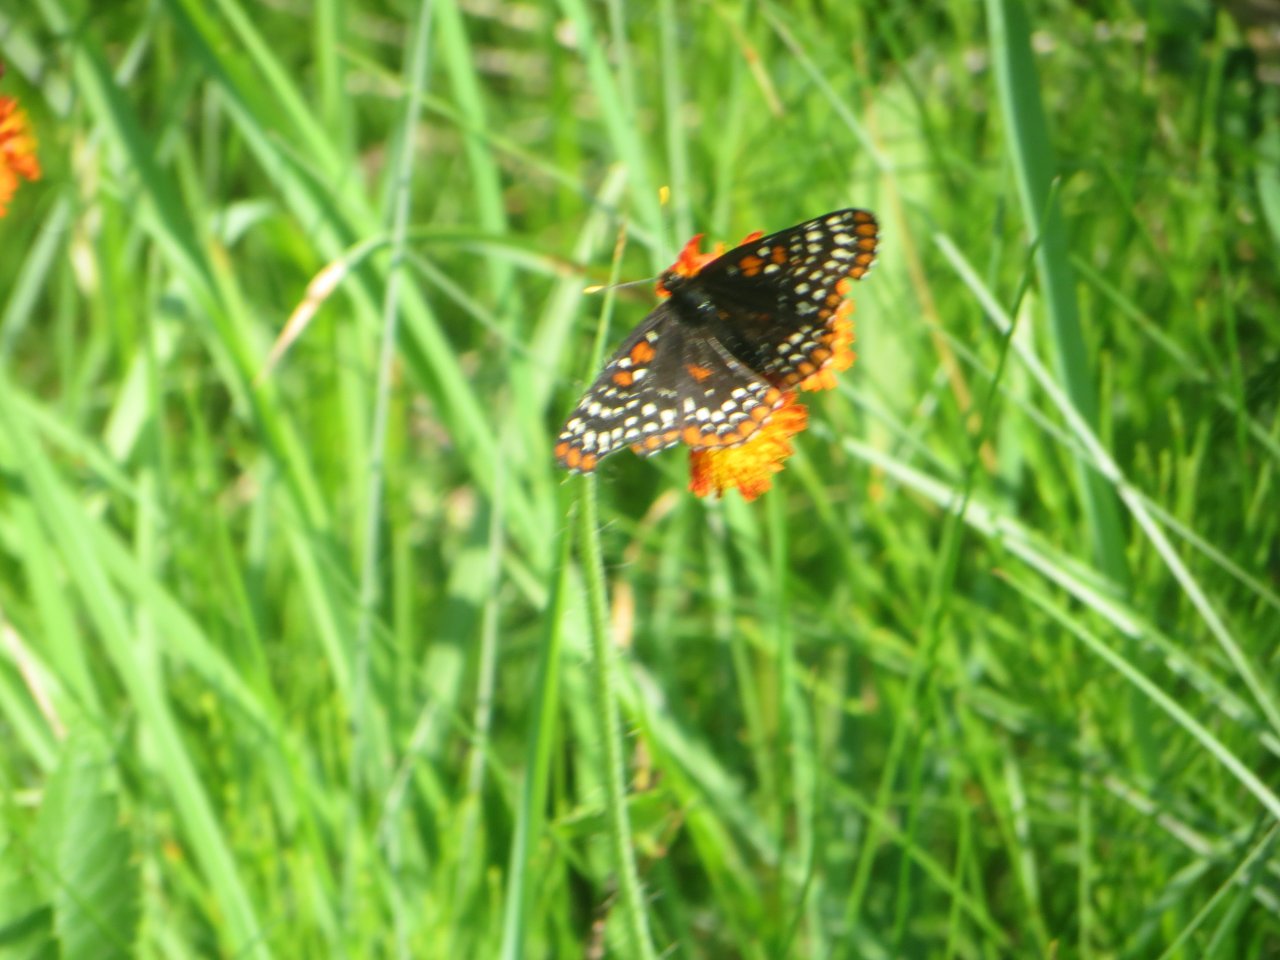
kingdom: Animalia
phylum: Arthropoda
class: Insecta
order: Lepidoptera
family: Nymphalidae
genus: Euphydryas
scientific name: Euphydryas phaeton
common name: Baltimore Checkerspot
